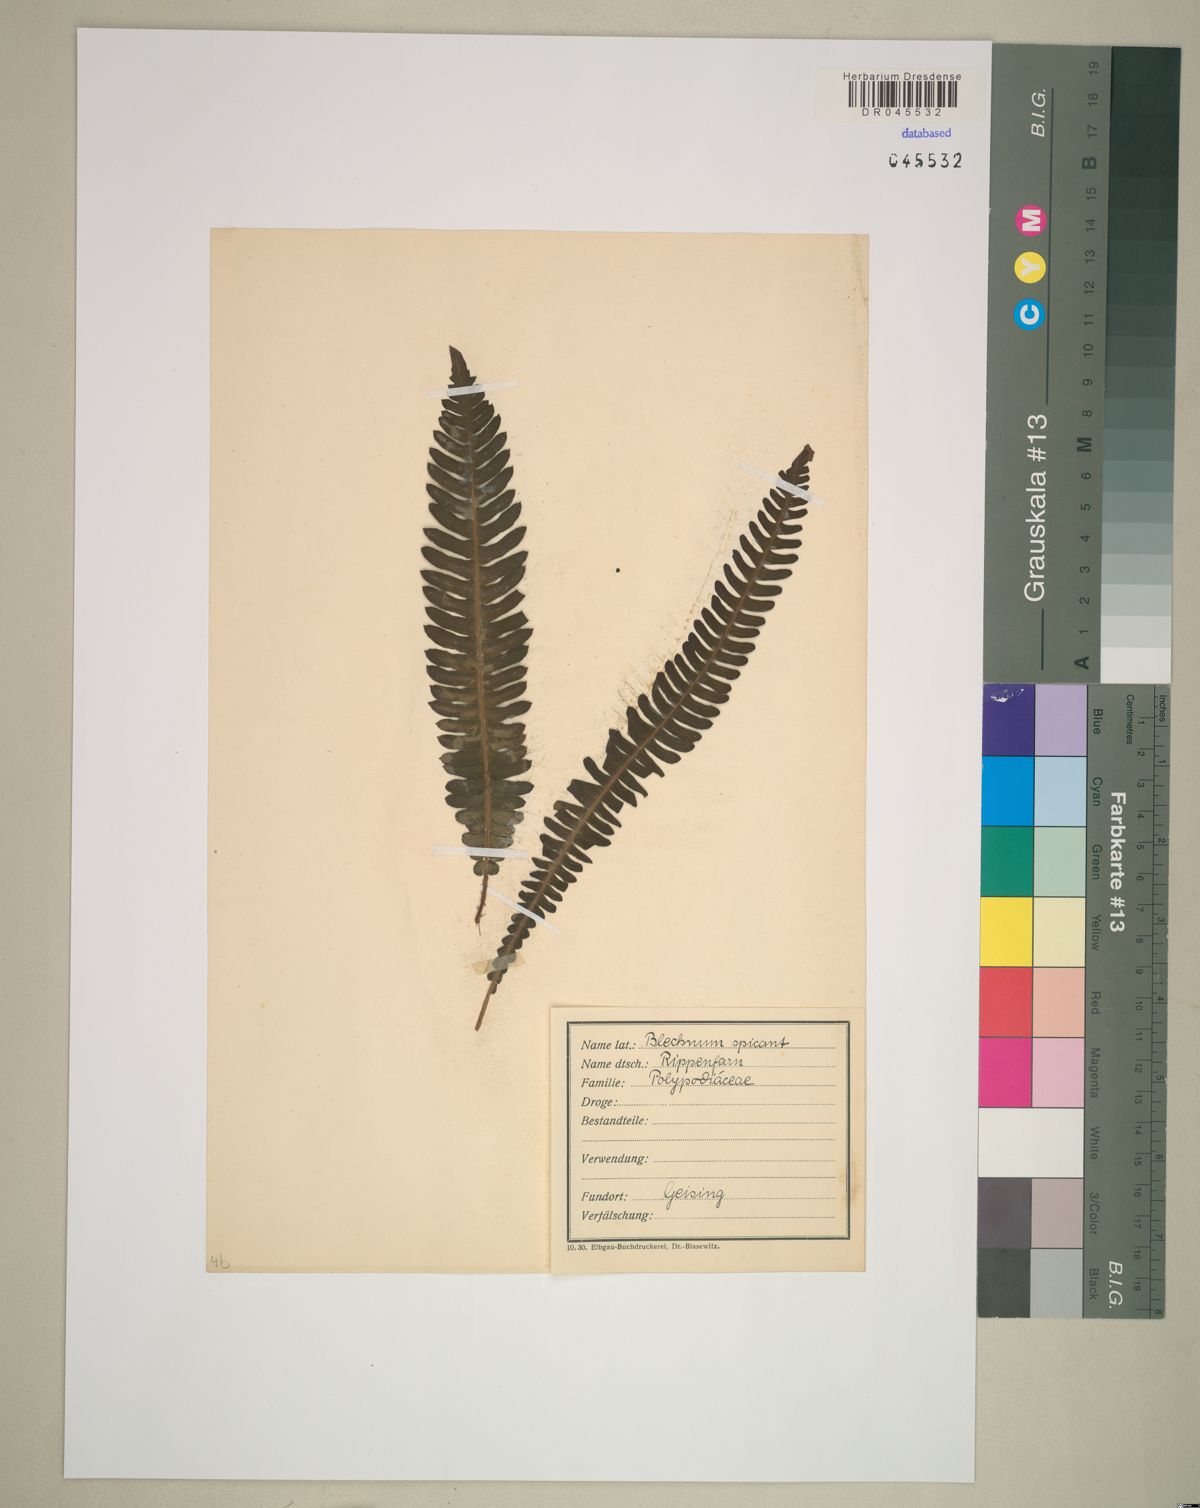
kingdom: Plantae
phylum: Tracheophyta
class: Polypodiopsida
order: Polypodiales
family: Blechnaceae
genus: Struthiopteris
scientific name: Struthiopteris spicant
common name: Deer fern
